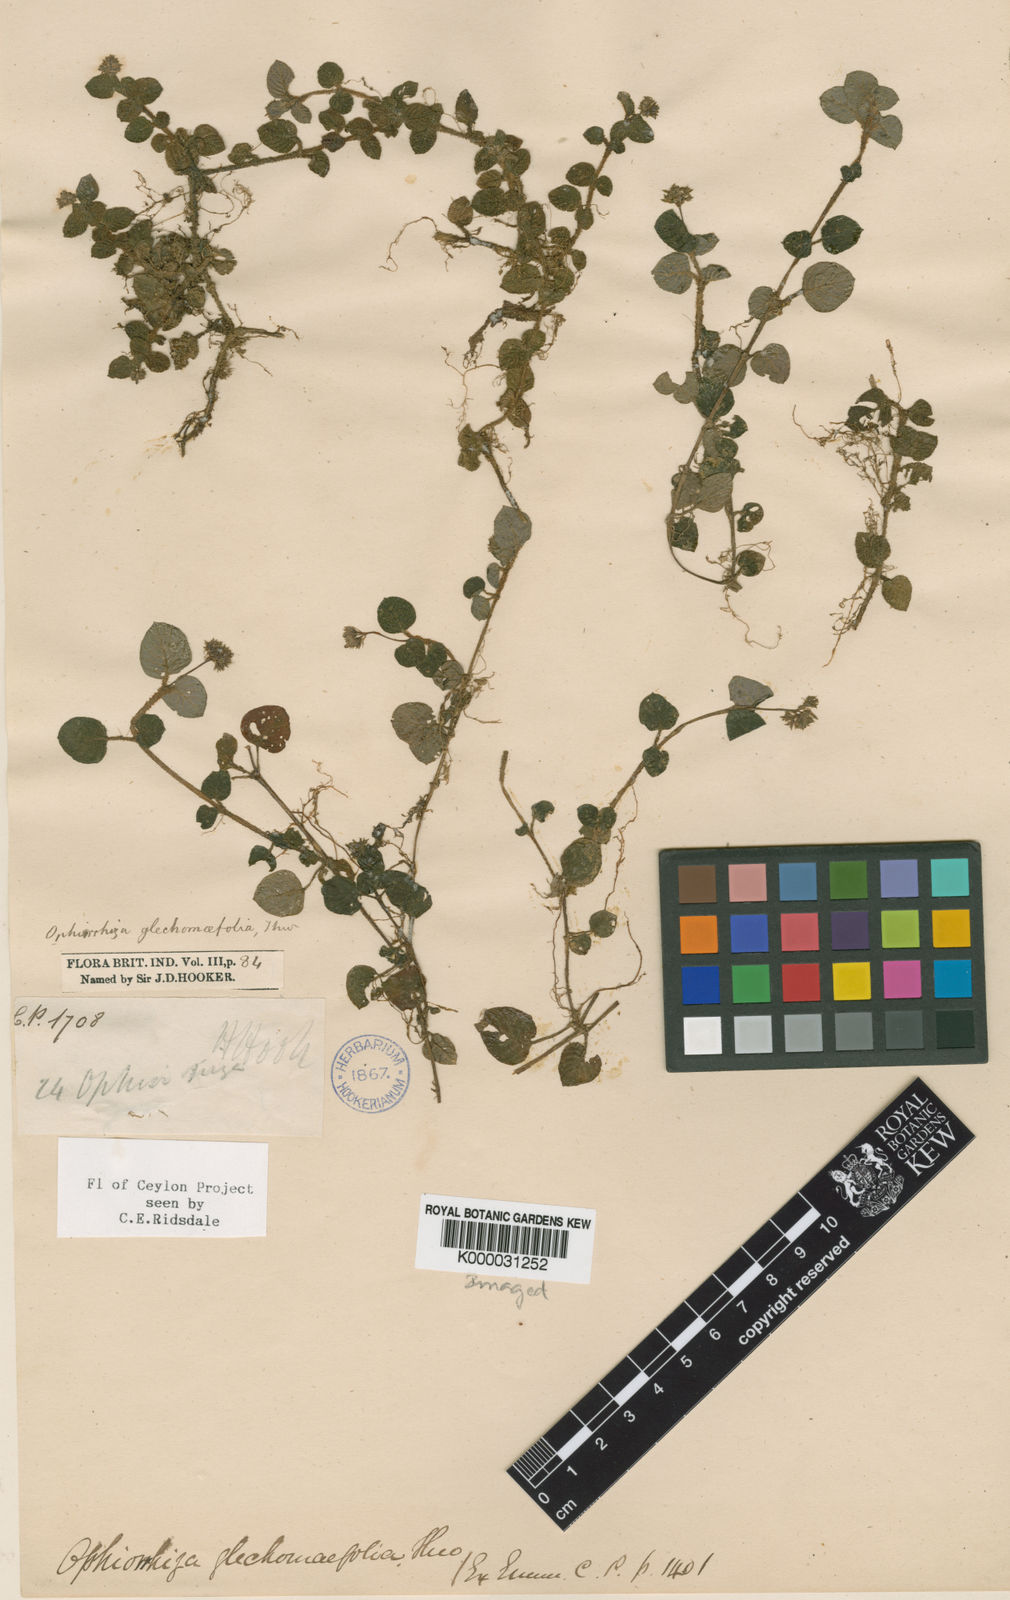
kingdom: Plantae
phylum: Tracheophyta
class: Magnoliopsida
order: Gentianales
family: Rubiaceae
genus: Ophiorrhiza
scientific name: Ophiorrhiza glechomifolia
